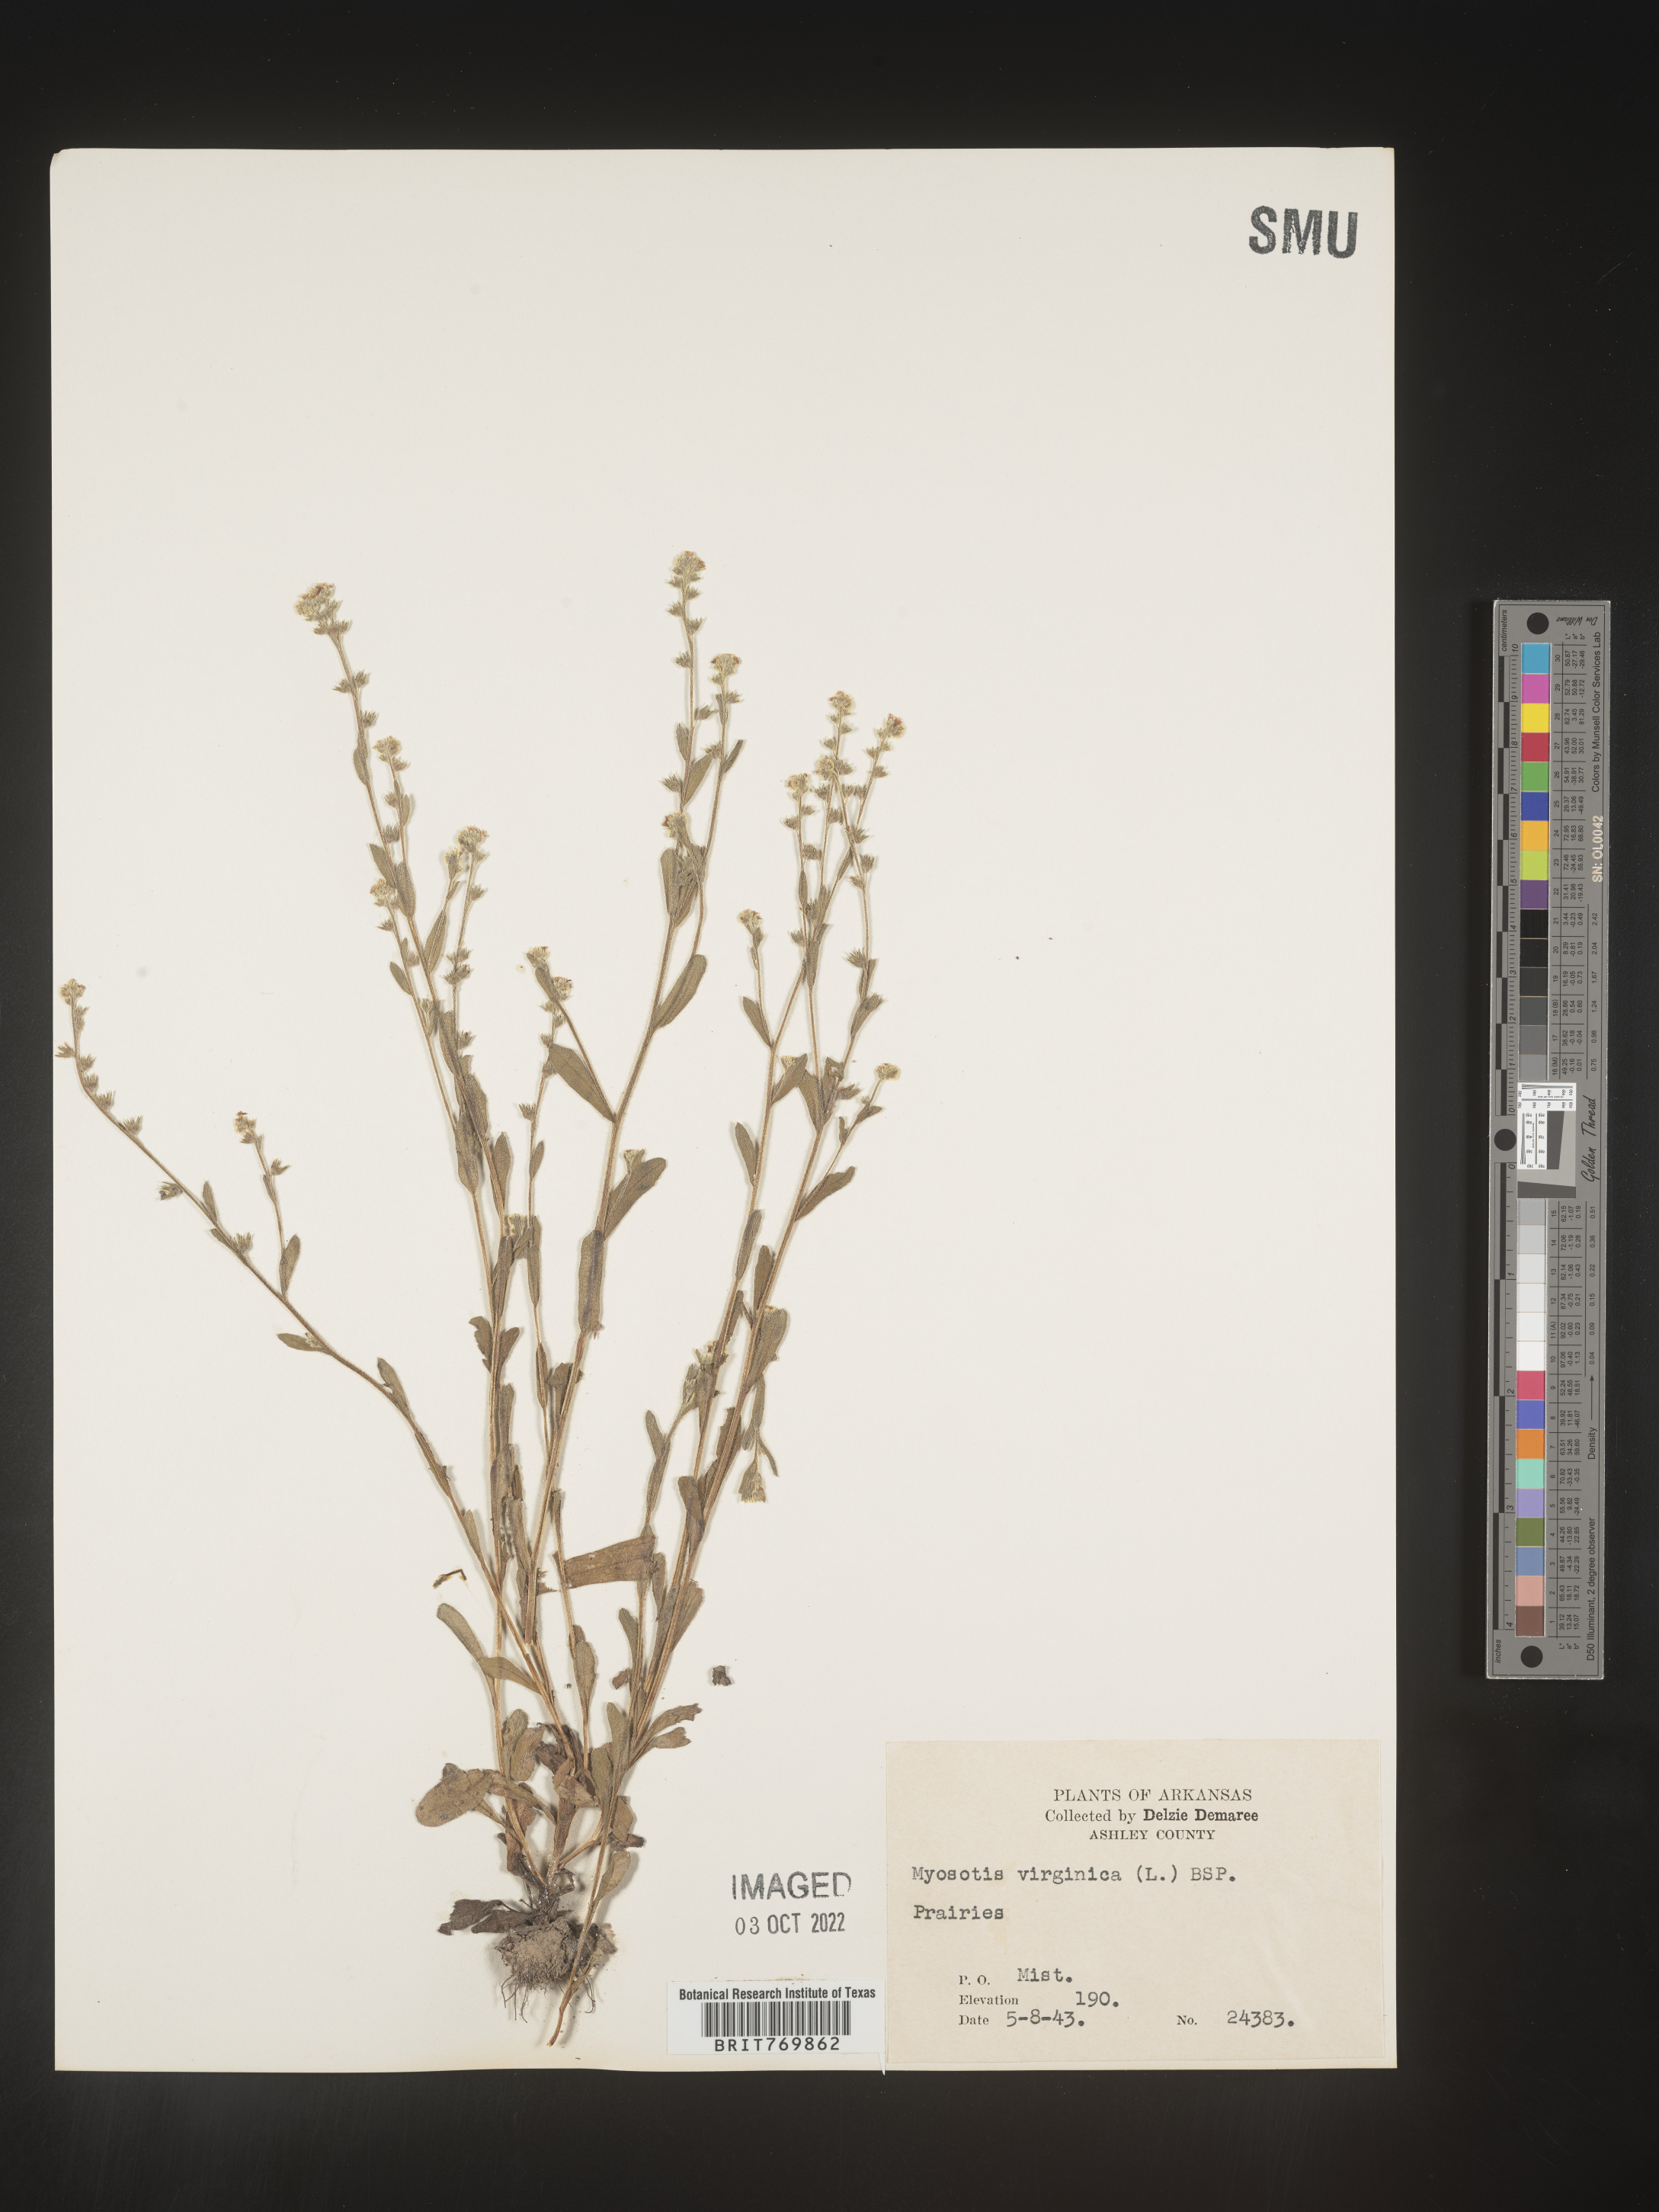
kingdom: Plantae
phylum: Tracheophyta
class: Magnoliopsida
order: Boraginales
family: Boraginaceae
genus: Myosotis
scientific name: Myosotis
